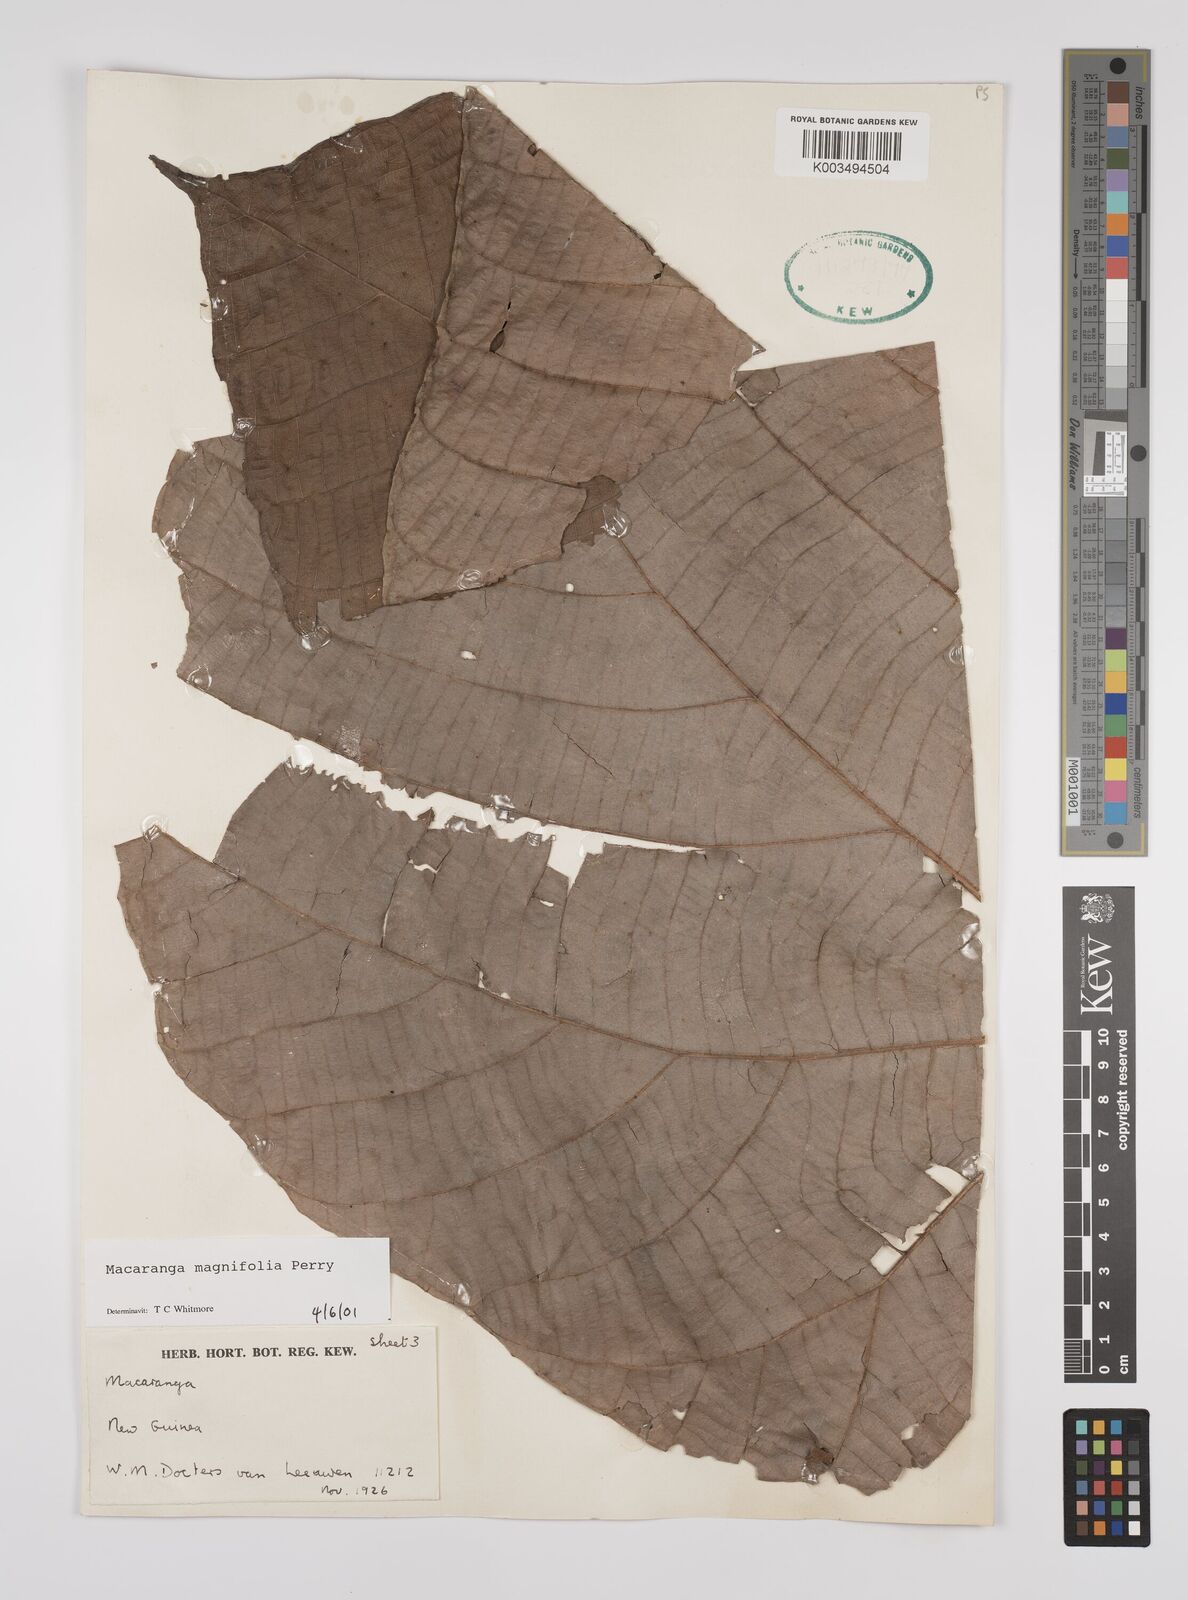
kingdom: Plantae
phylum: Tracheophyta
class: Magnoliopsida
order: Malpighiales
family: Euphorbiaceae
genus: Macaranga
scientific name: Macaranga magnifolia
